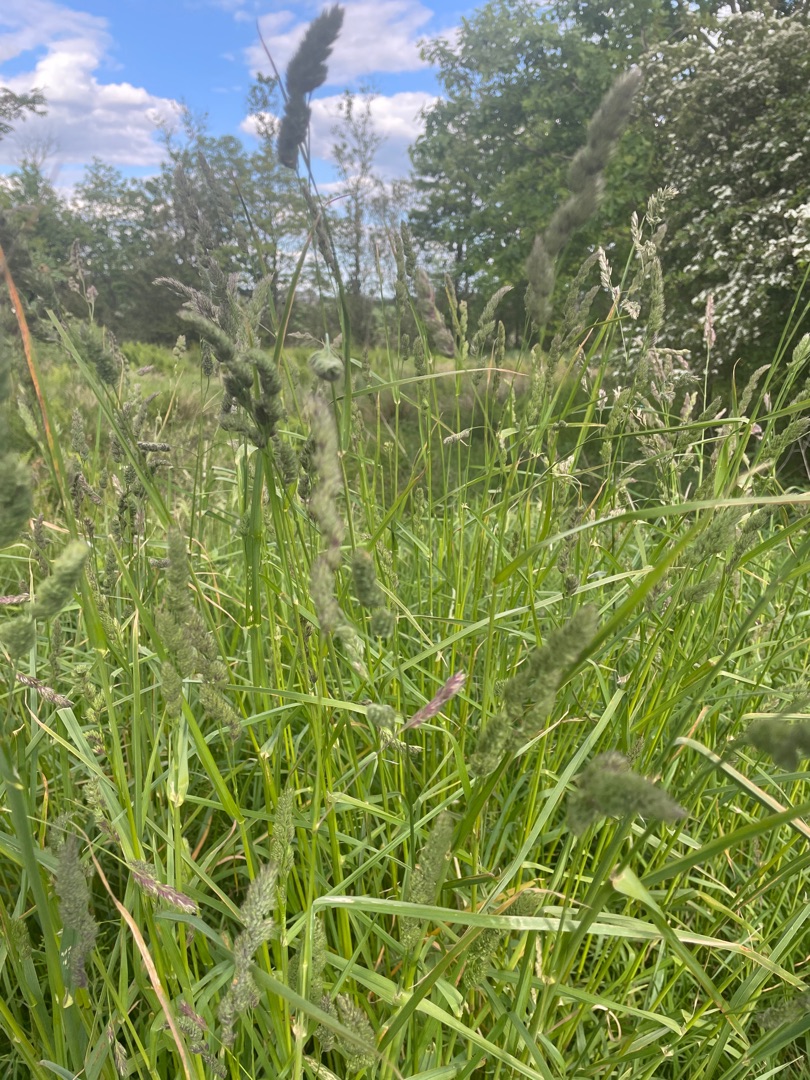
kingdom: Plantae
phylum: Tracheophyta
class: Liliopsida
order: Poales
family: Poaceae
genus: Dactylis
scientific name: Dactylis glomerata
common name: Almindelig hundegræs
